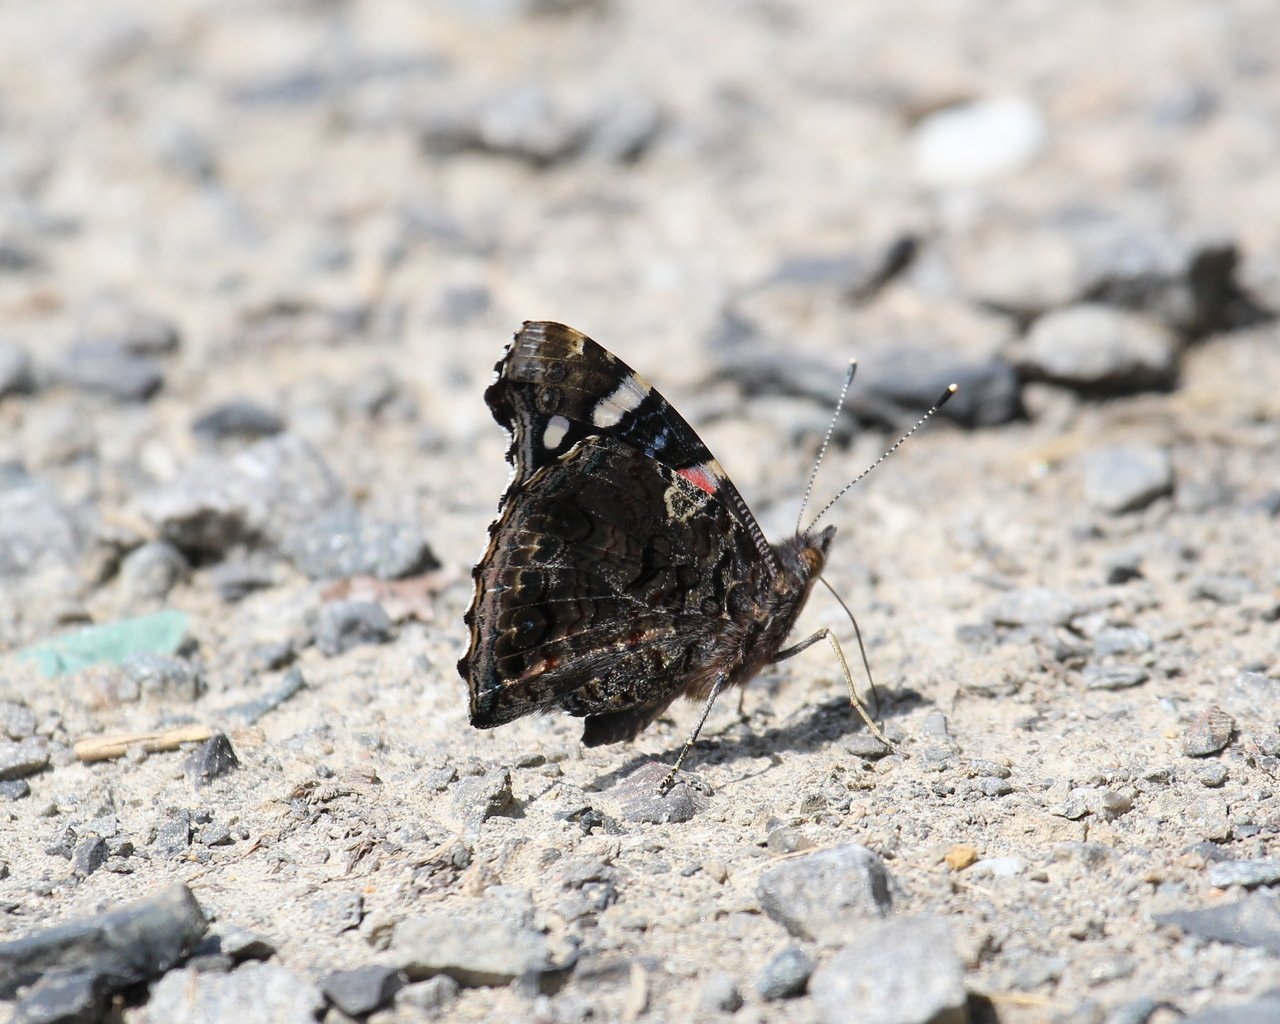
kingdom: Animalia
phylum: Arthropoda
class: Insecta
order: Lepidoptera
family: Nymphalidae
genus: Vanessa
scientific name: Vanessa atalanta
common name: Red Admiral
